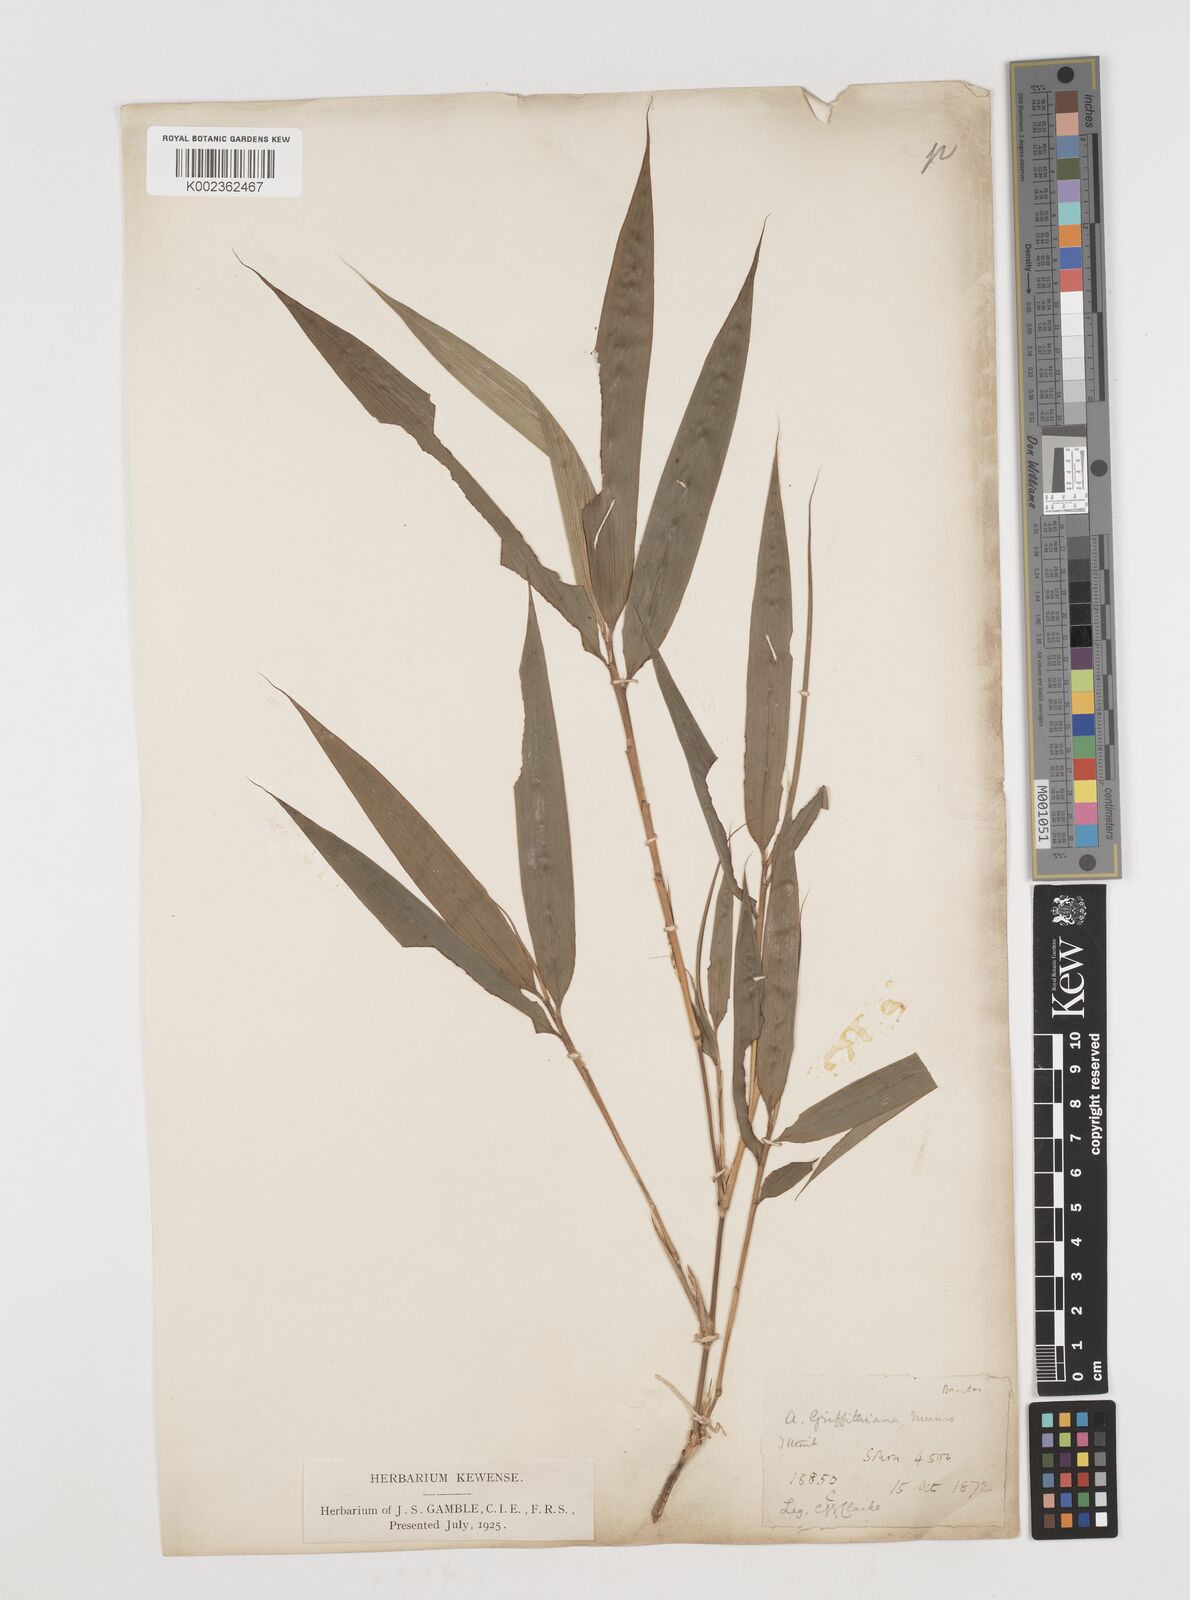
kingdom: Plantae
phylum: Tracheophyta
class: Liliopsida
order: Poales
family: Poaceae
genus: Chimonocalamus
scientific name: Chimonocalamus griffithianus
